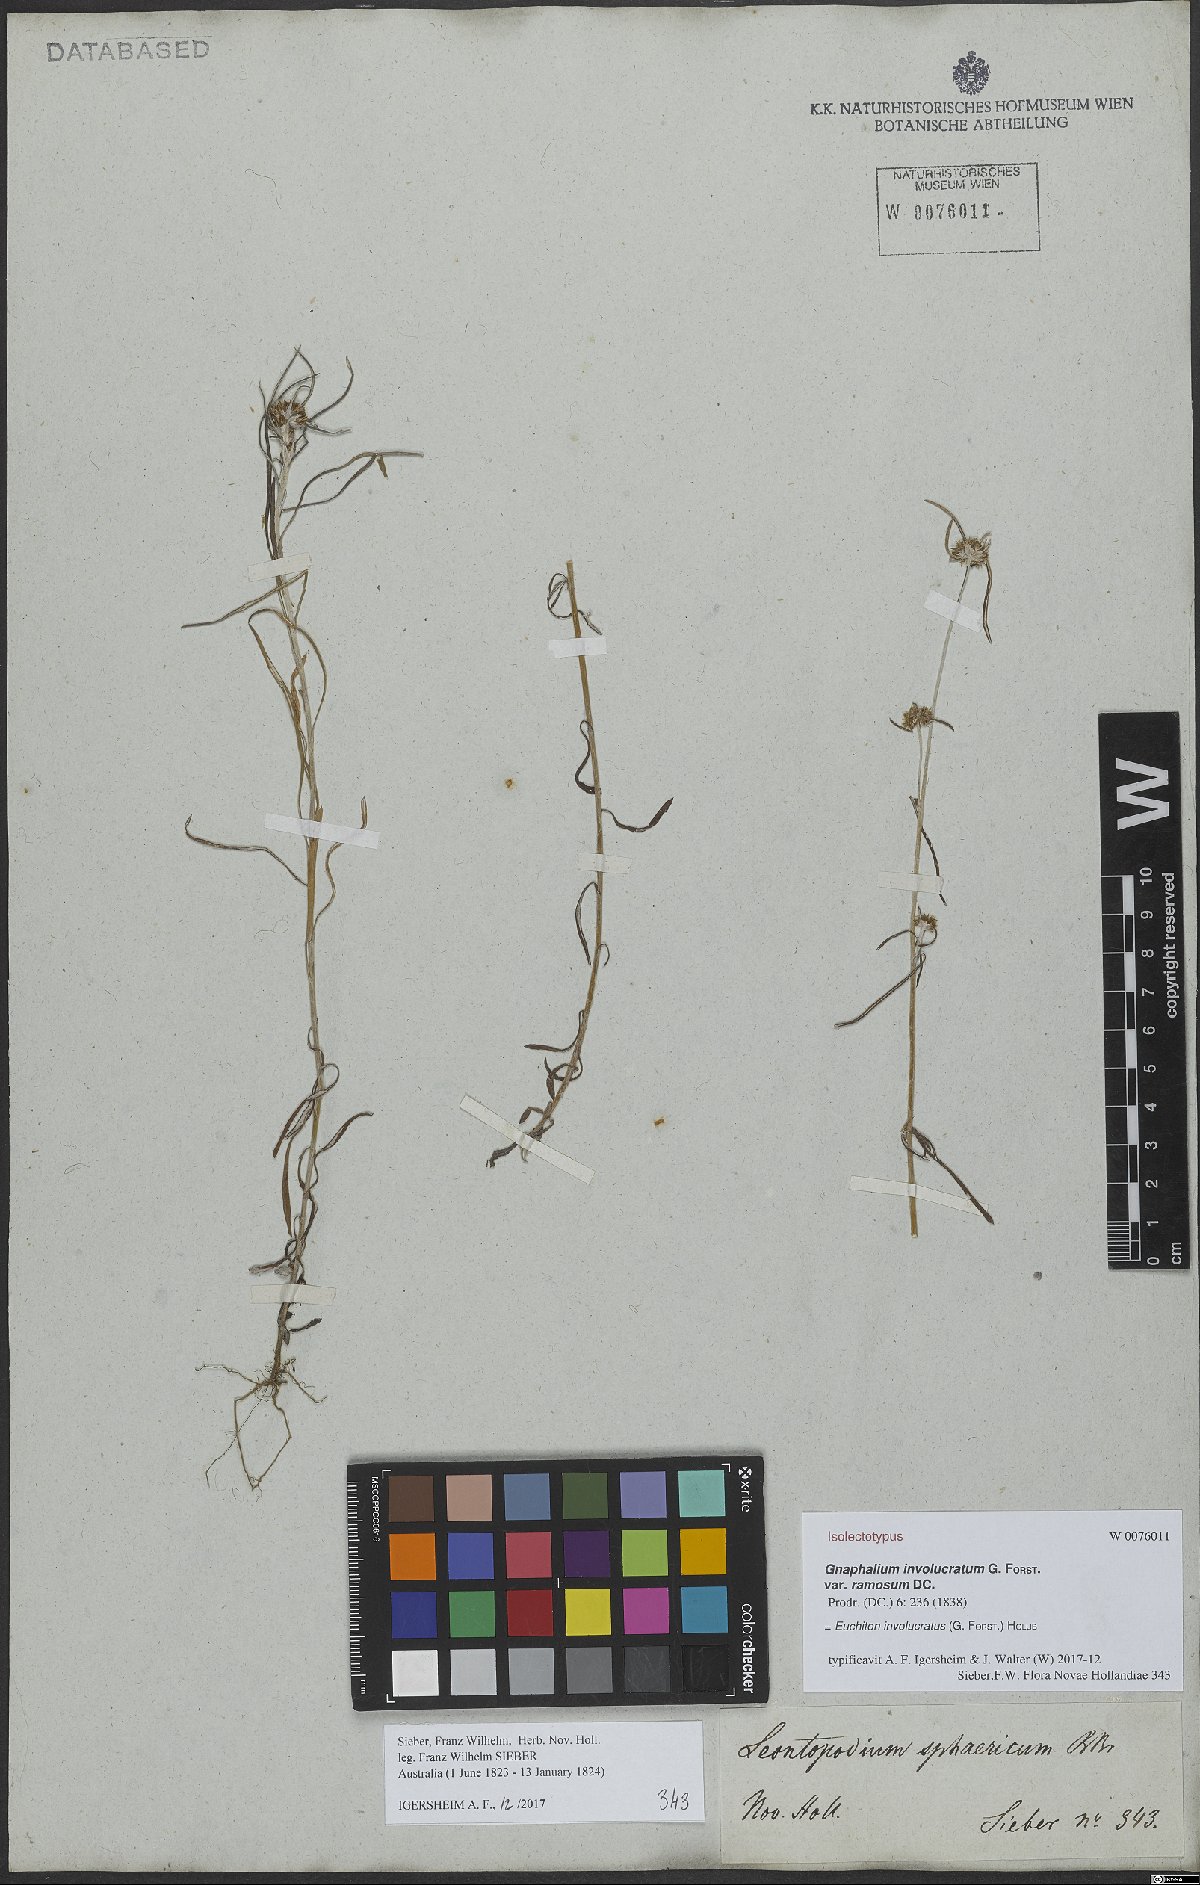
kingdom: Plantae
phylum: Tracheophyta
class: Magnoliopsida
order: Asterales
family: Asteraceae
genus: Euchiton
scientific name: Euchiton involucratus
